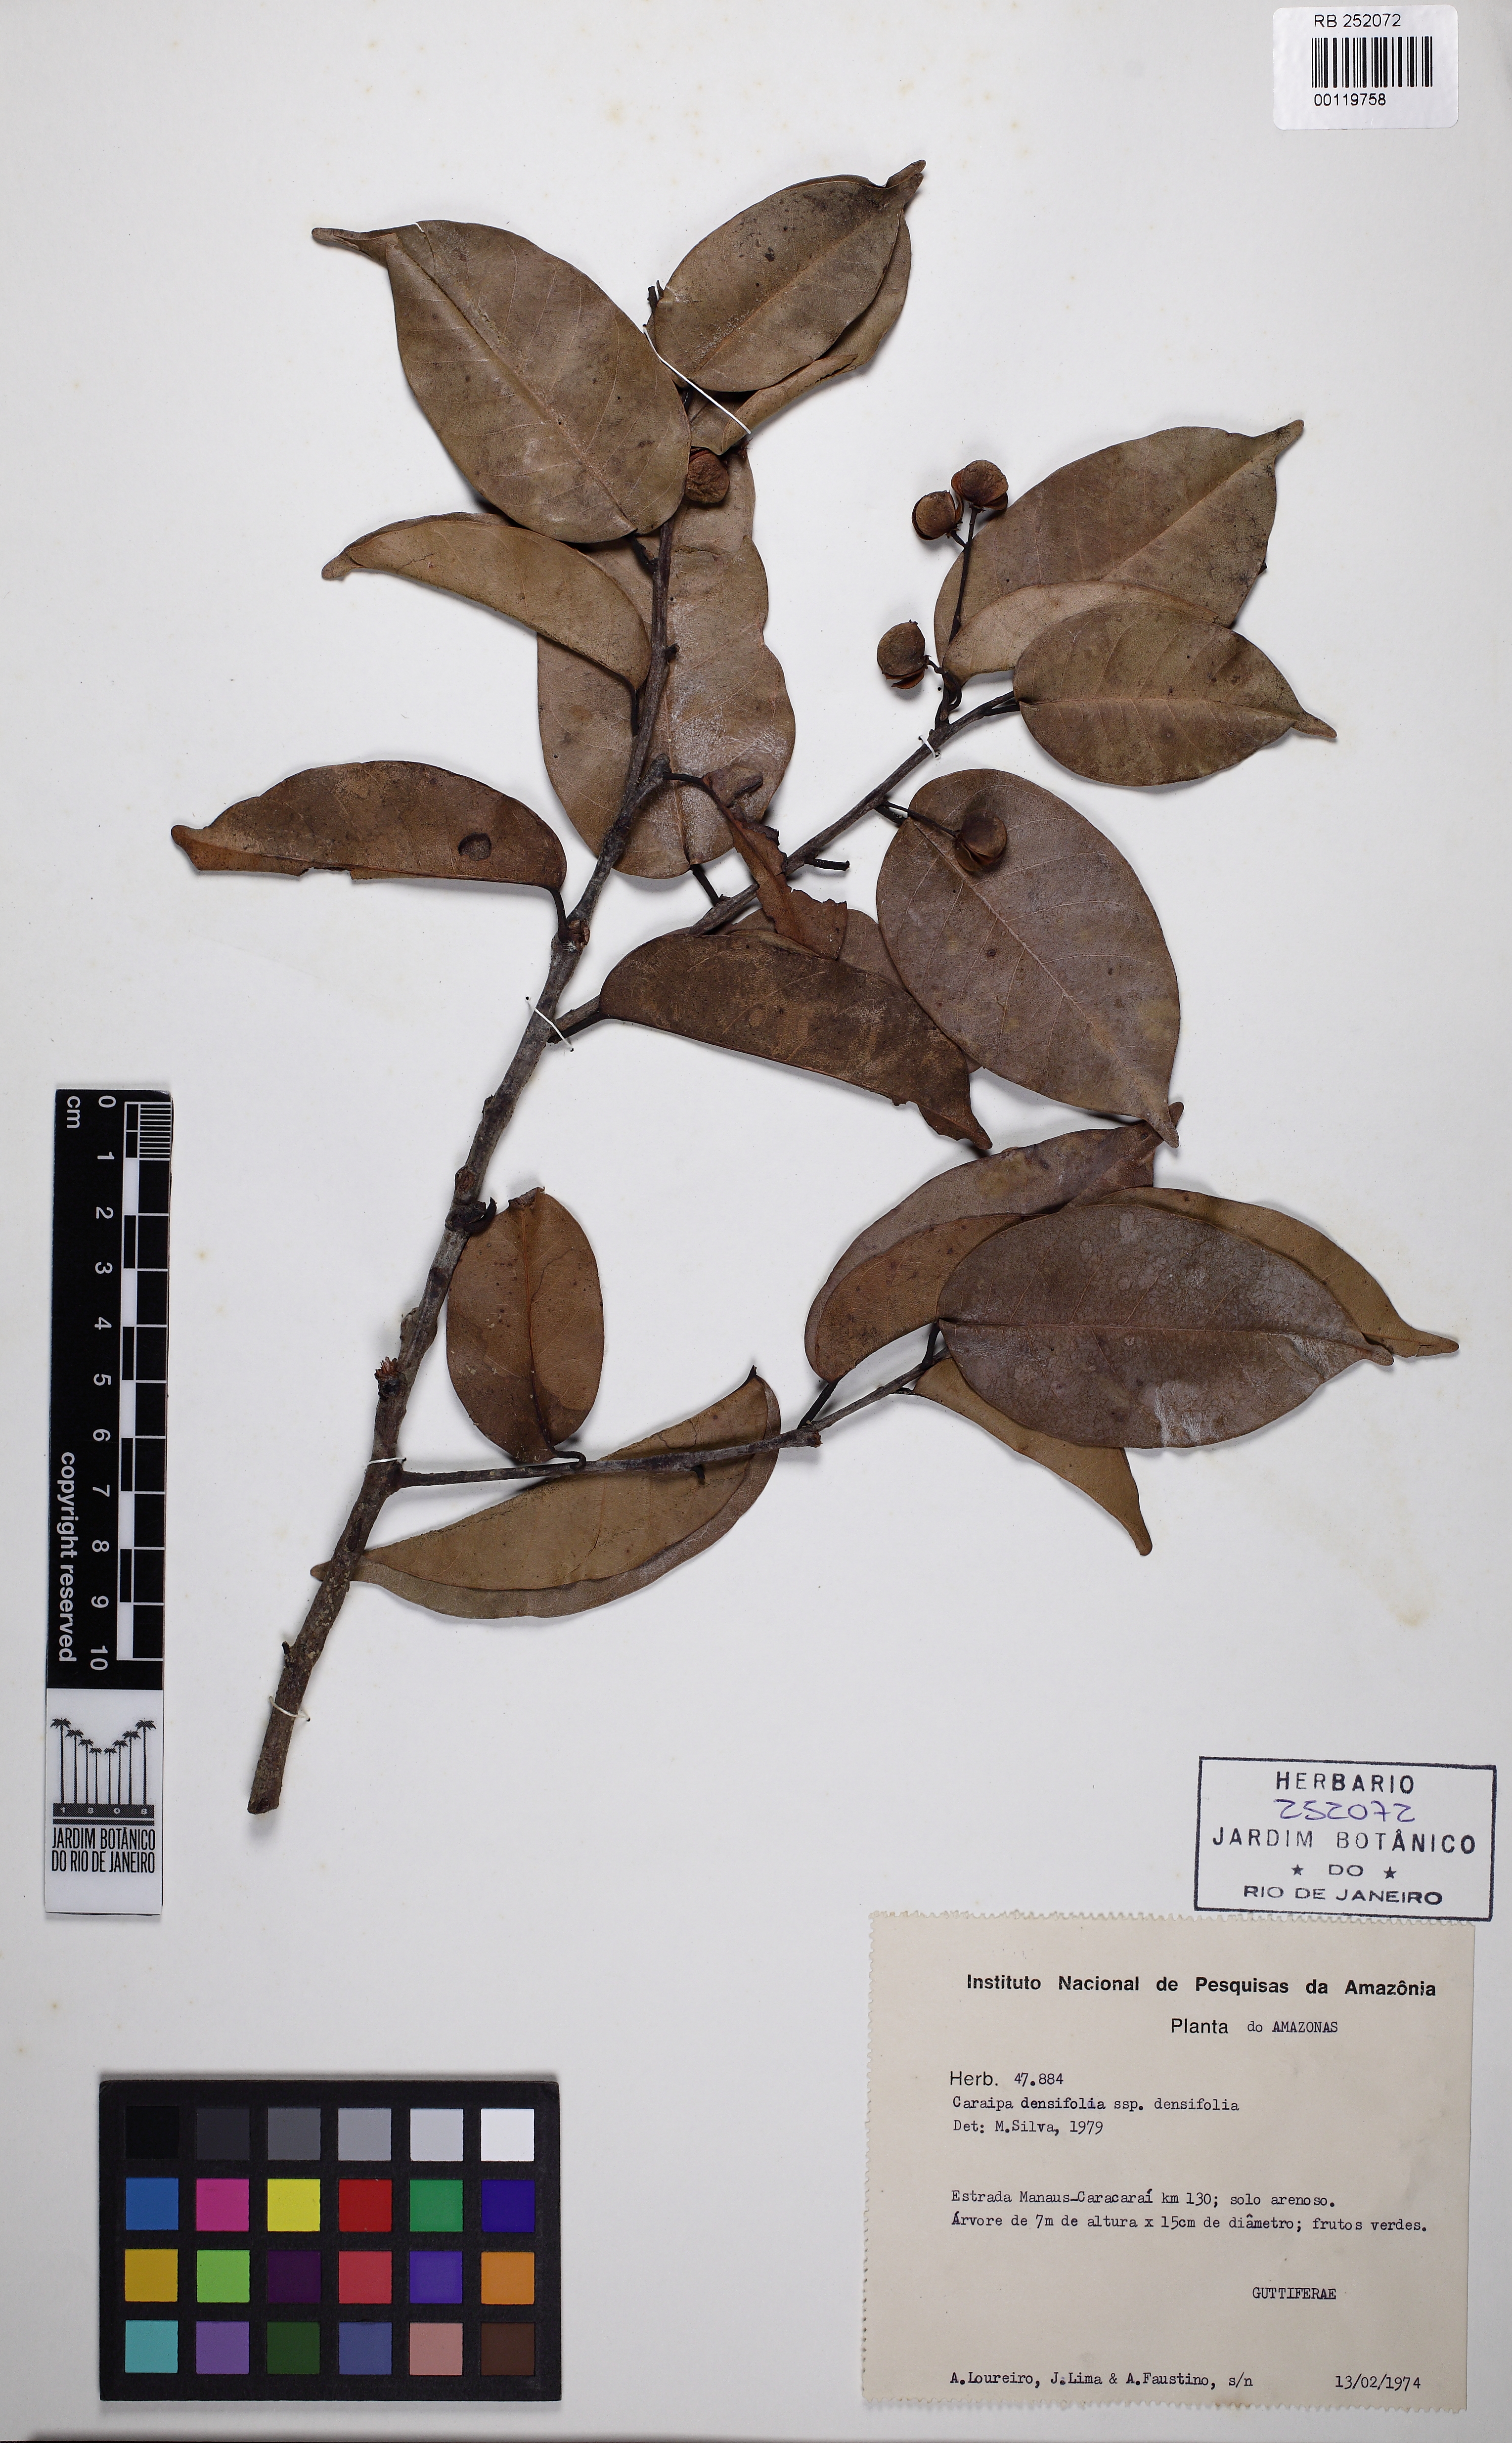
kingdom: Plantae
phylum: Tracheophyta
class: Magnoliopsida
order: Malpighiales
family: Calophyllaceae
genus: Caraipa
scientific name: Caraipa savannarum
